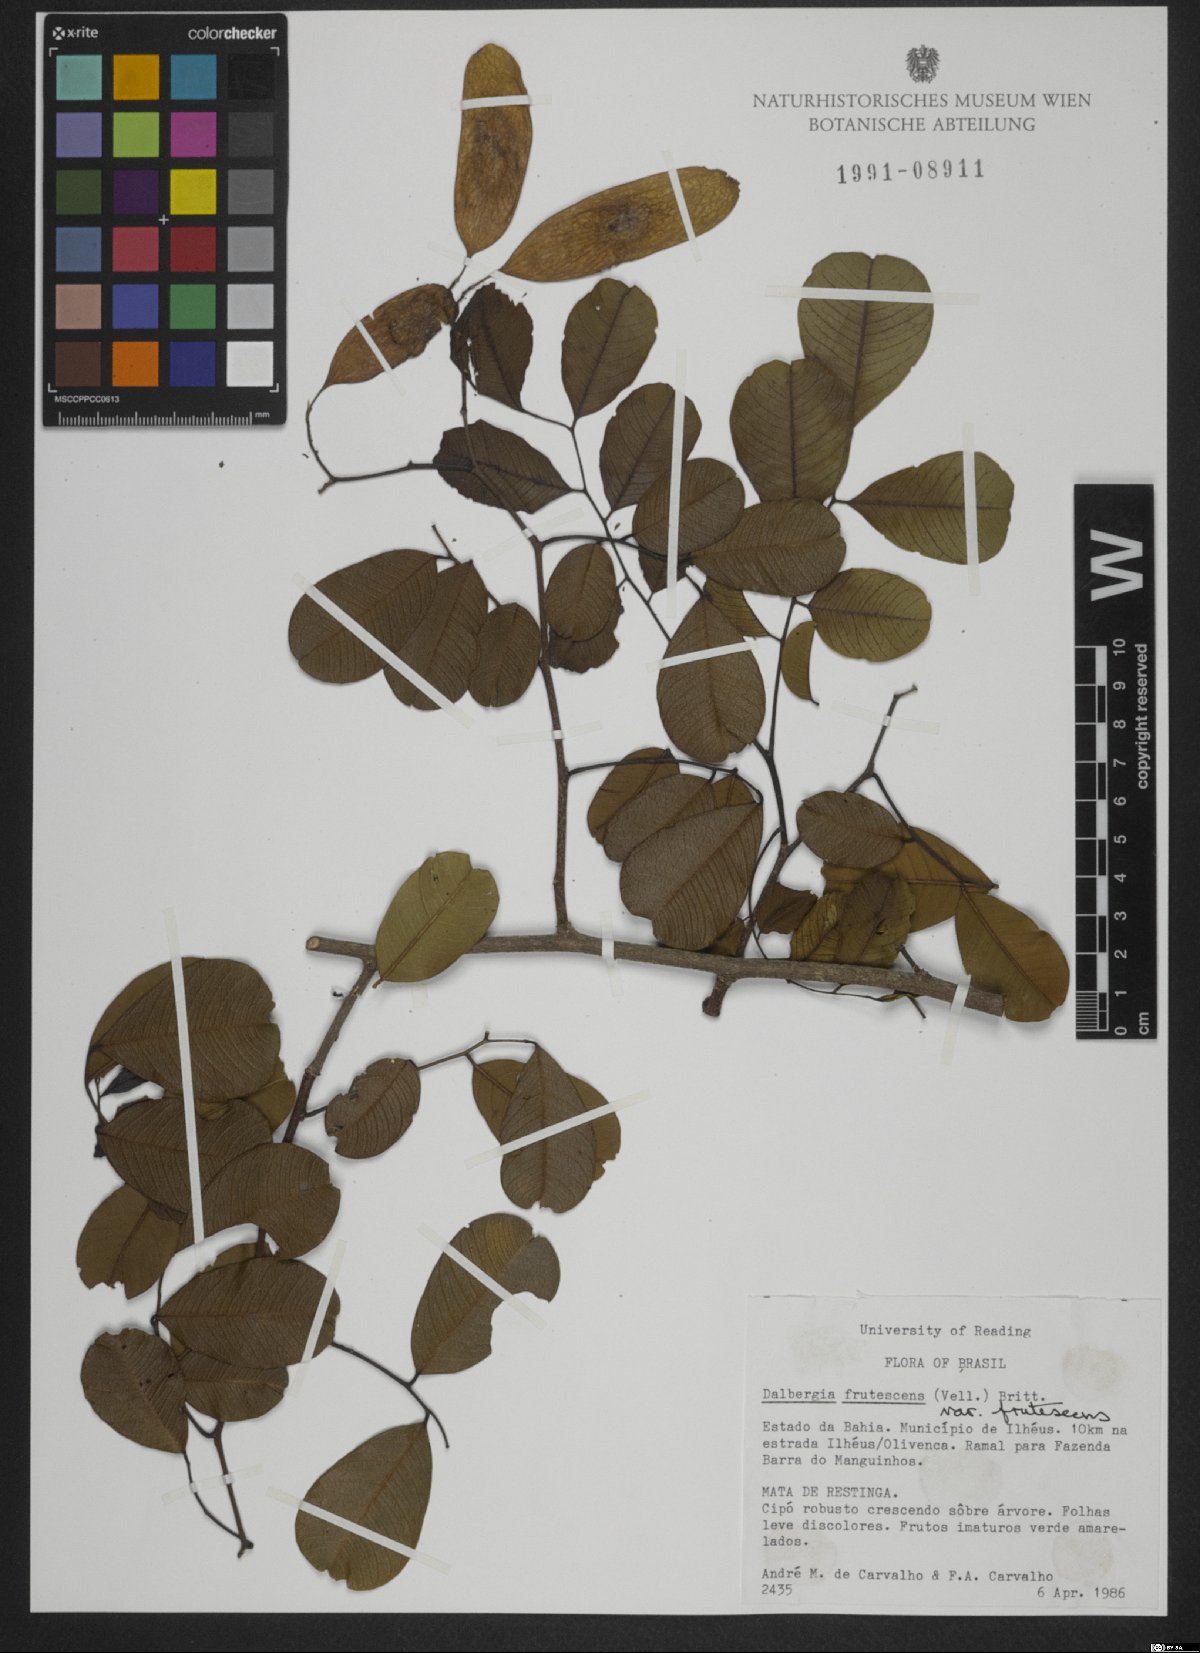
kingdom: Plantae
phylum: Tracheophyta
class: Magnoliopsida
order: Fabales
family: Fabaceae
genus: Dalbergia
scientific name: Dalbergia frutescens
